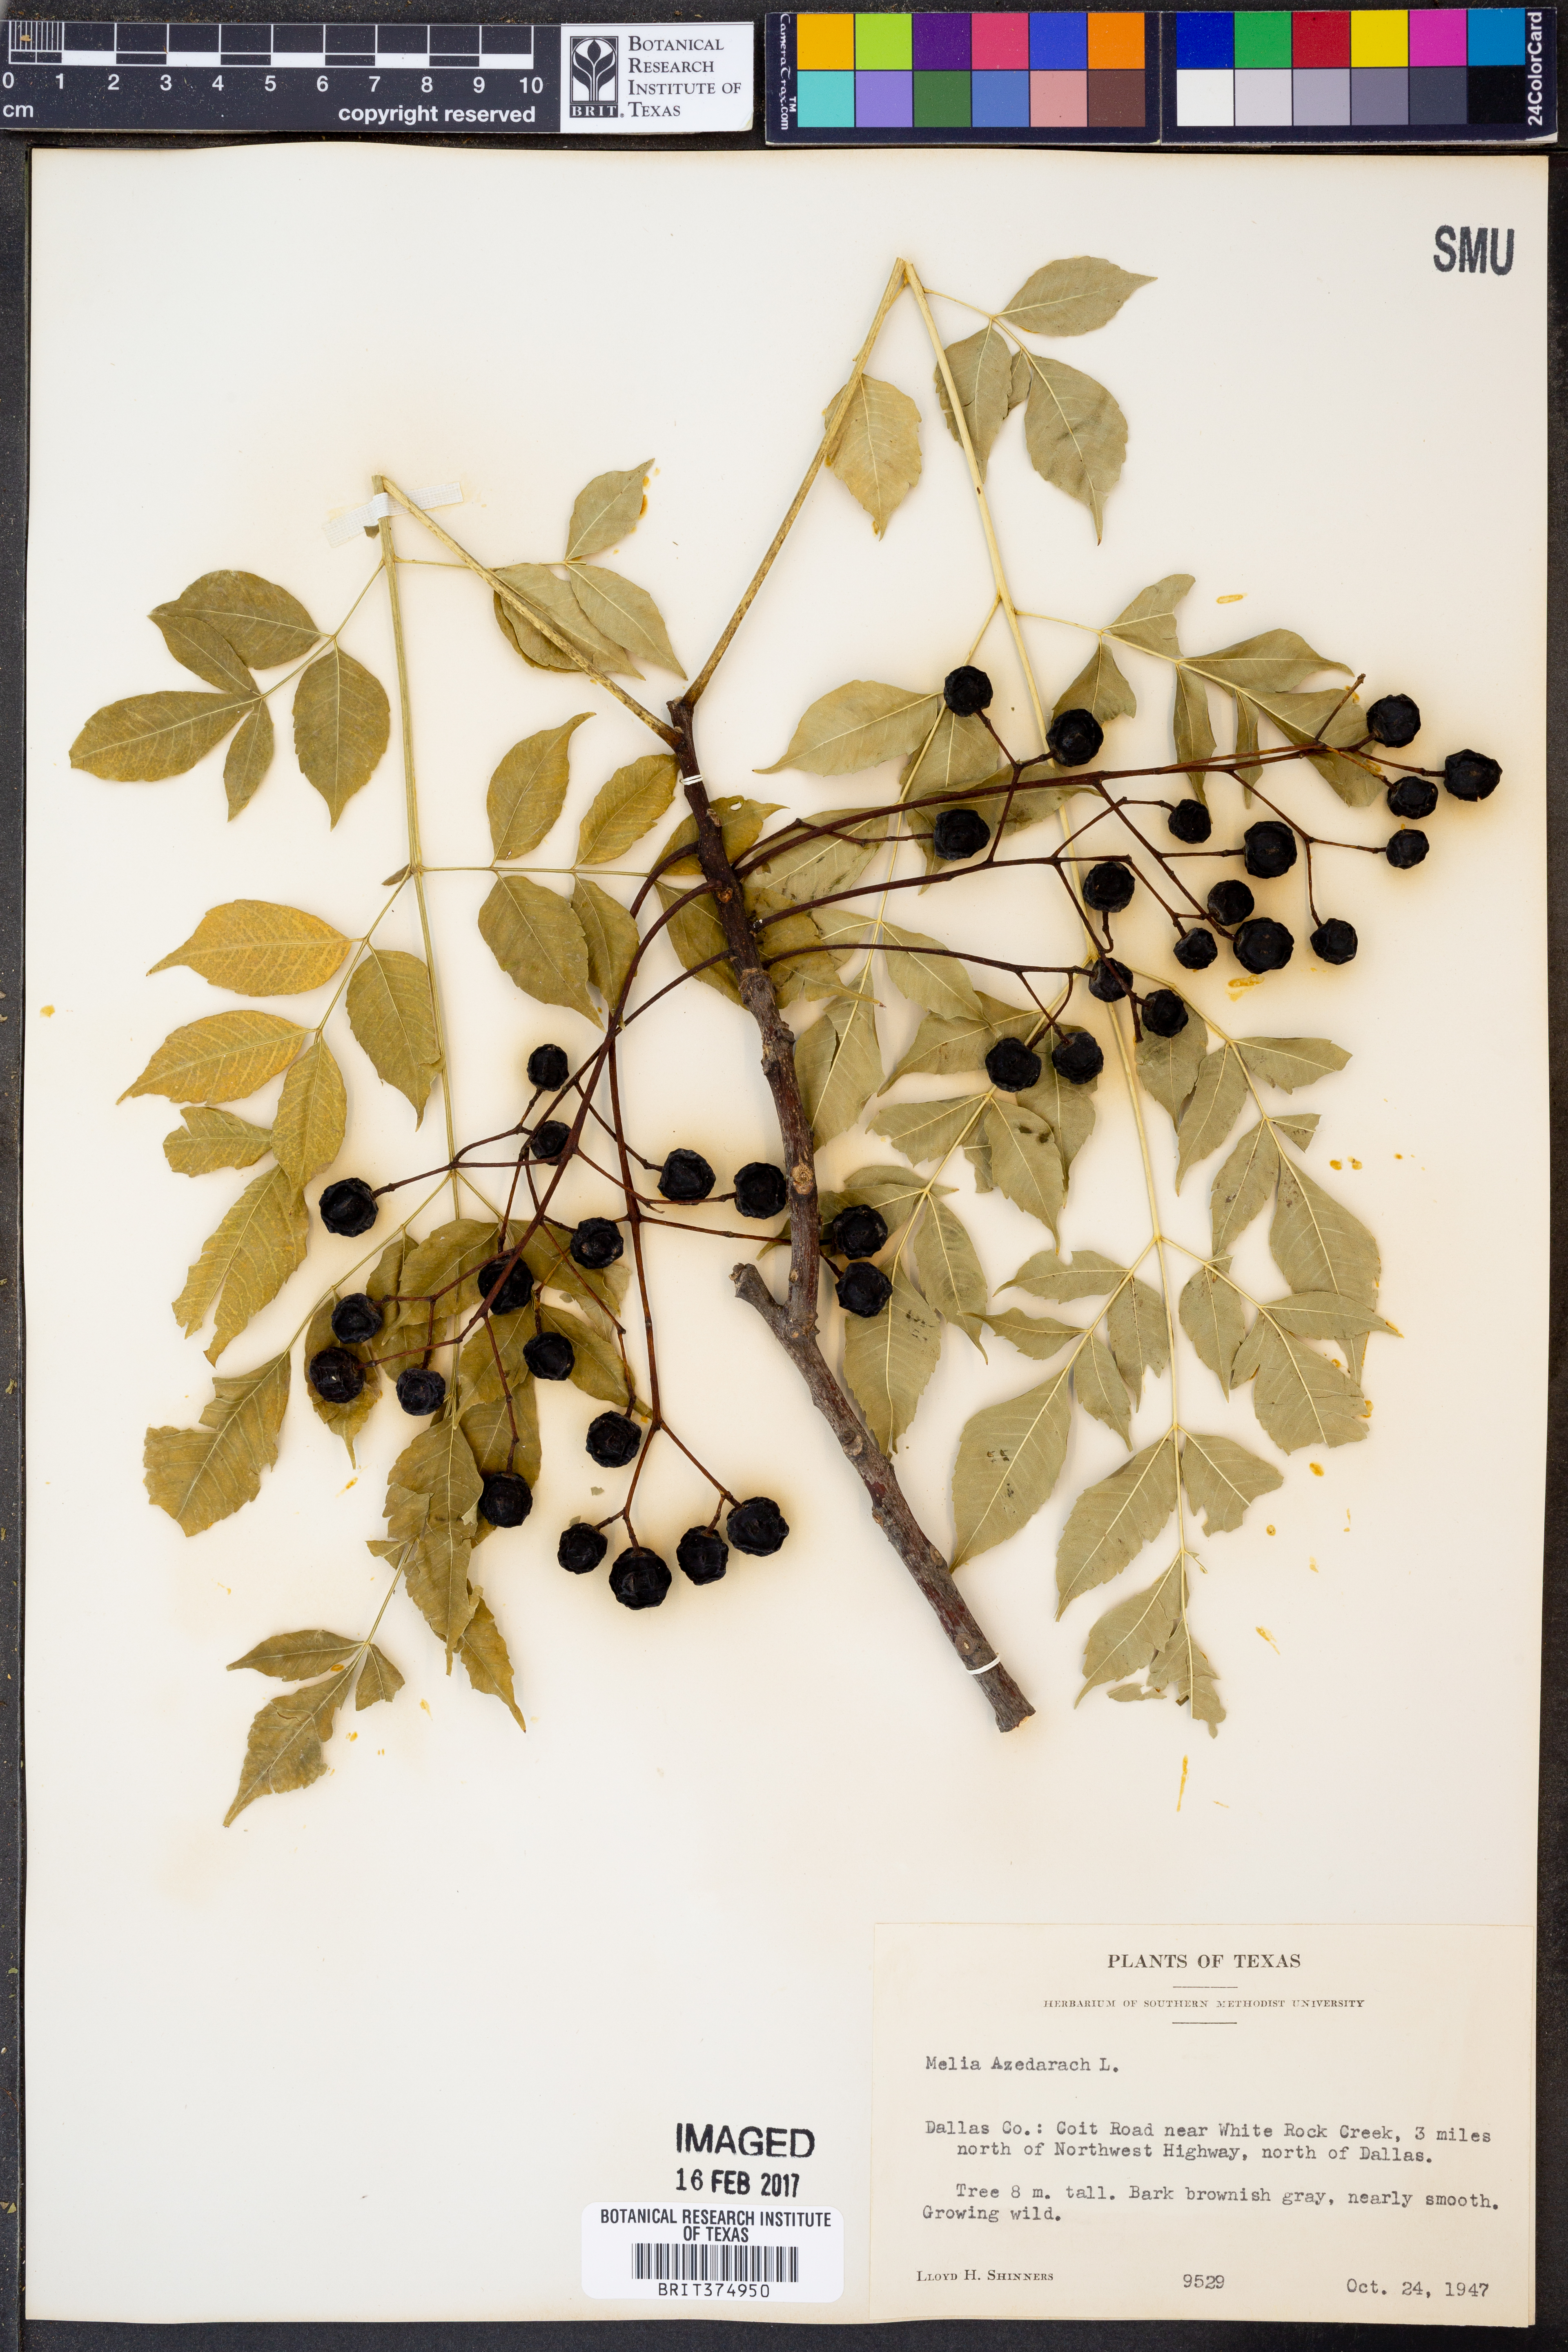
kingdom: Plantae
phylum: Tracheophyta
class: Magnoliopsida
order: Sapindales
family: Meliaceae
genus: Melia
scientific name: Melia azedarach
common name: Chinaberrytree
